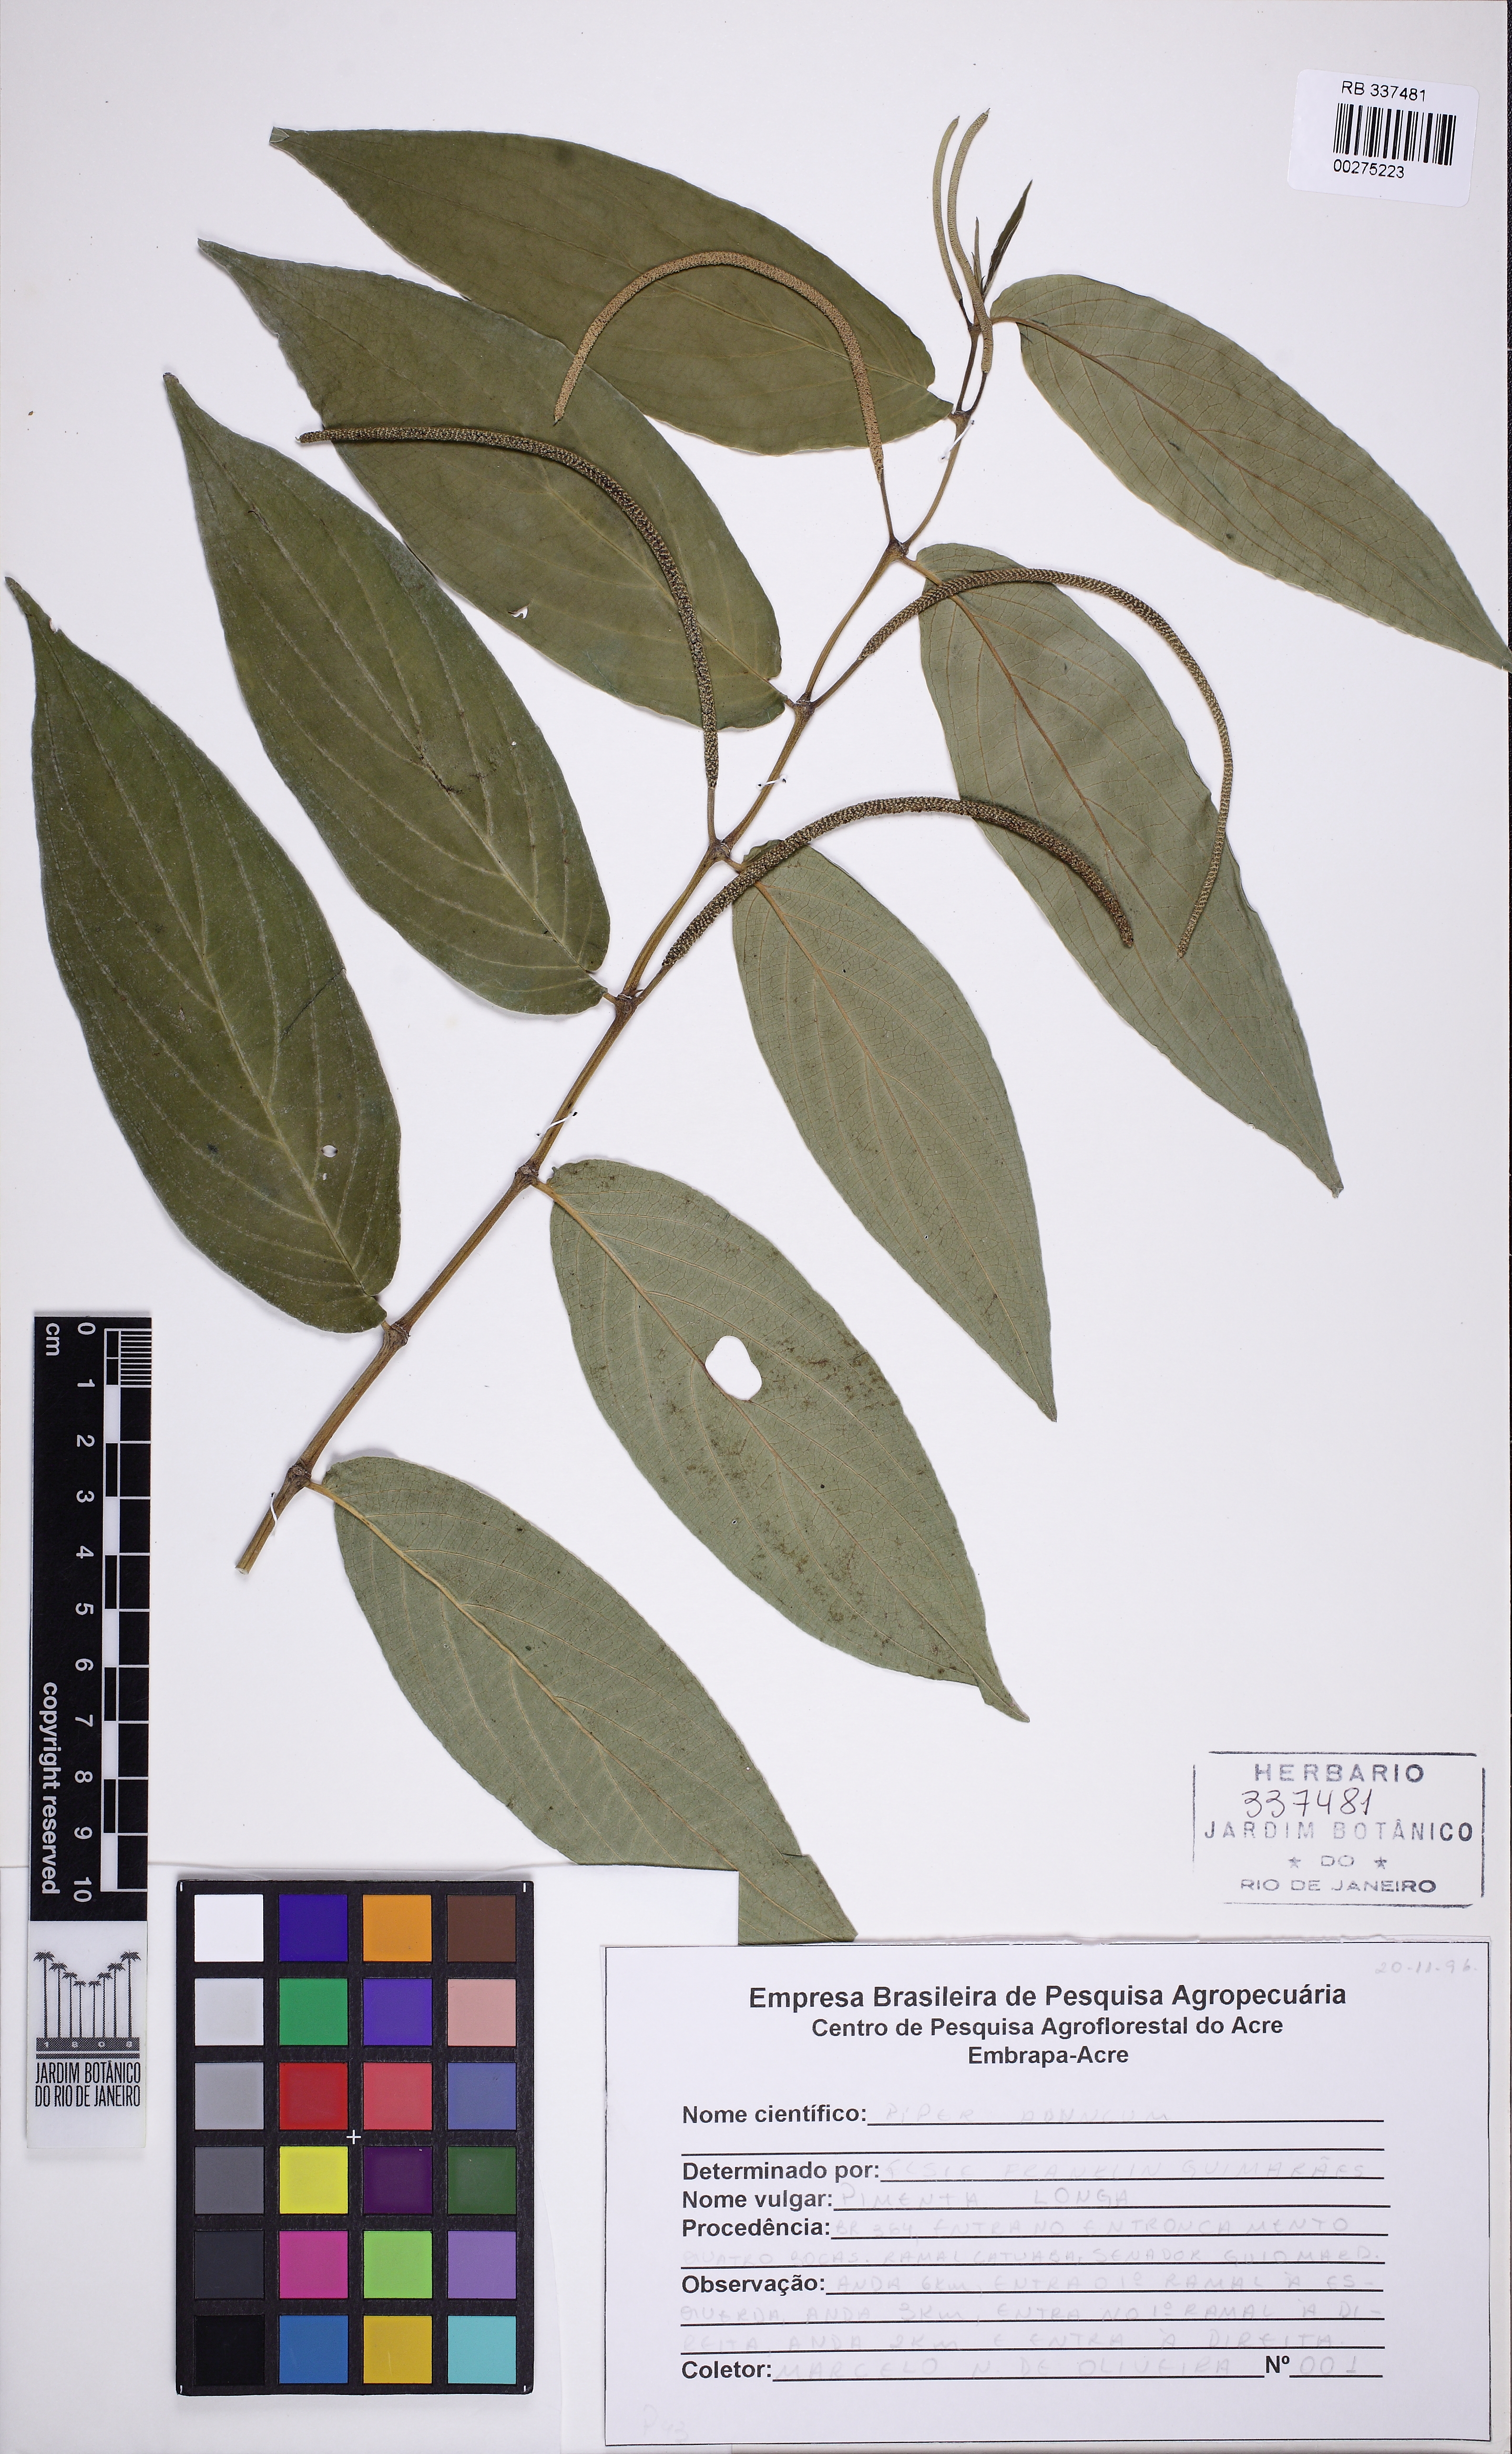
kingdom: Plantae
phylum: Tracheophyta
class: Magnoliopsida
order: Piperales
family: Piperaceae
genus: Piper
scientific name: Piper aduncum
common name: Spiked pepper
